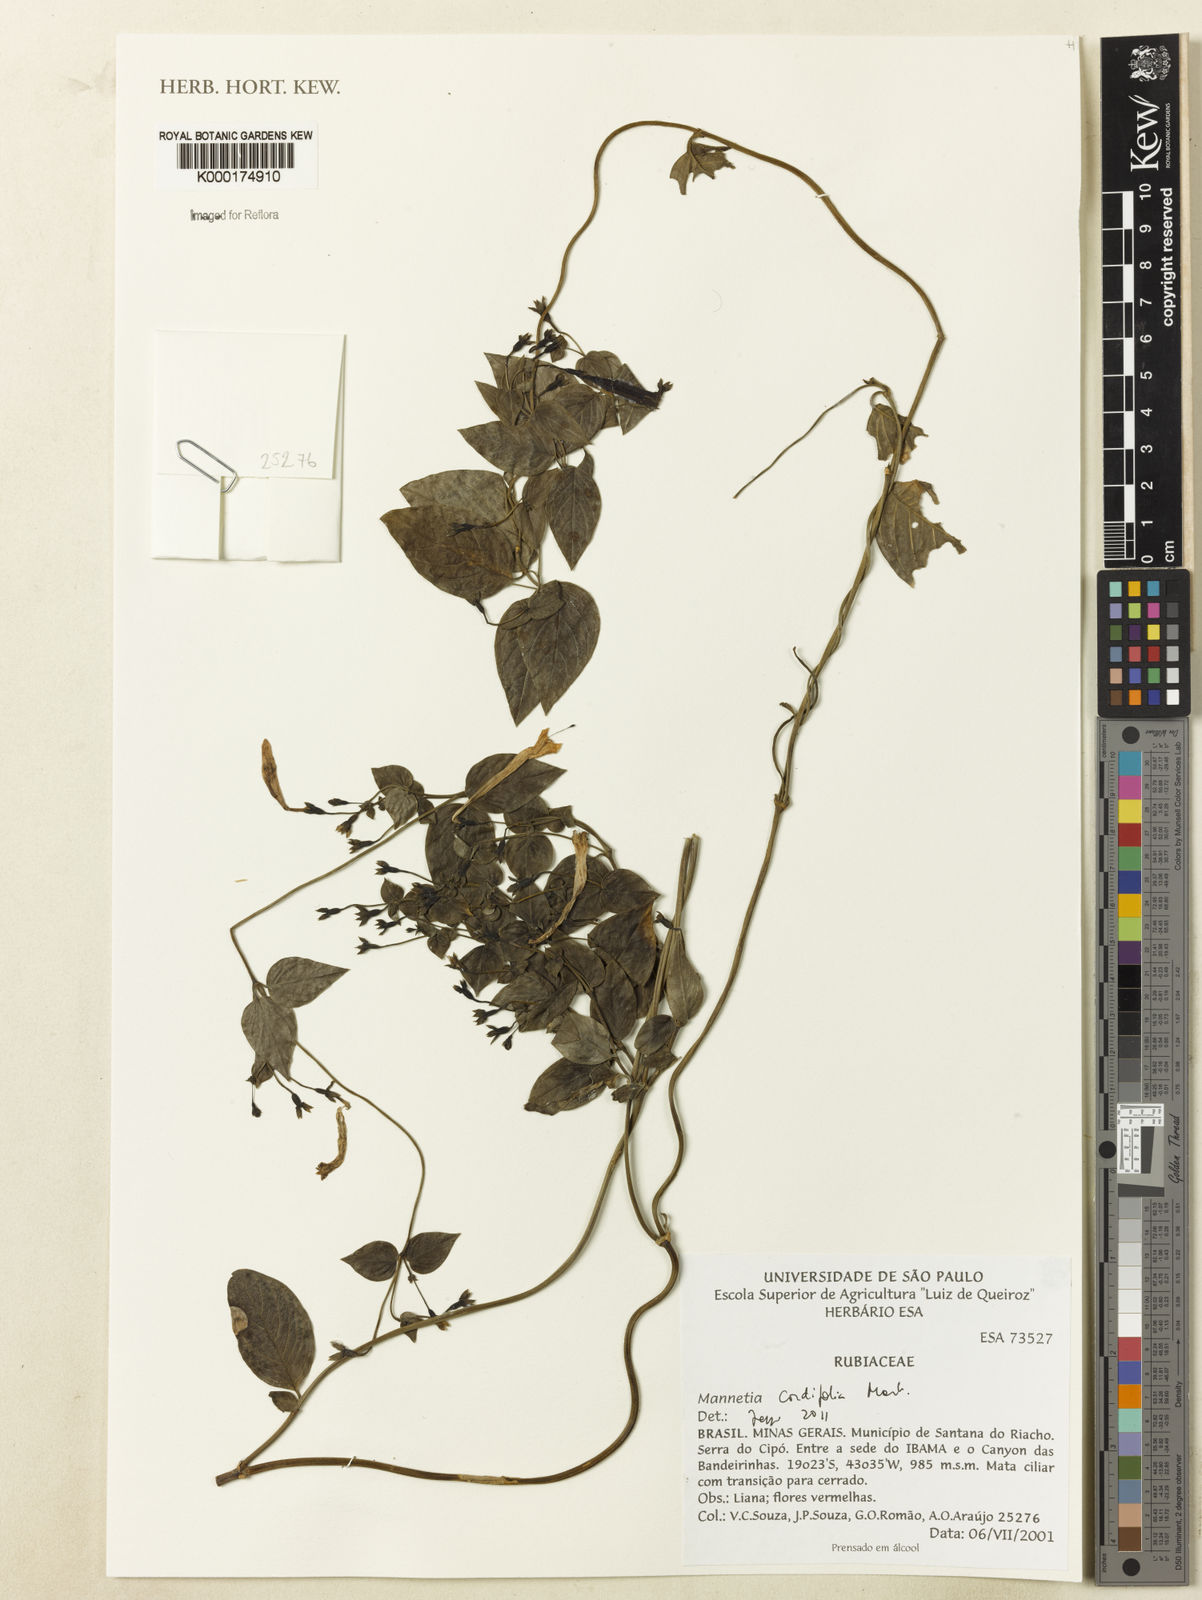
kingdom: Plantae
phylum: Tracheophyta
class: Magnoliopsida
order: Gentianales
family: Rubiaceae
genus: Manettia
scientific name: Manettia cordifolia
